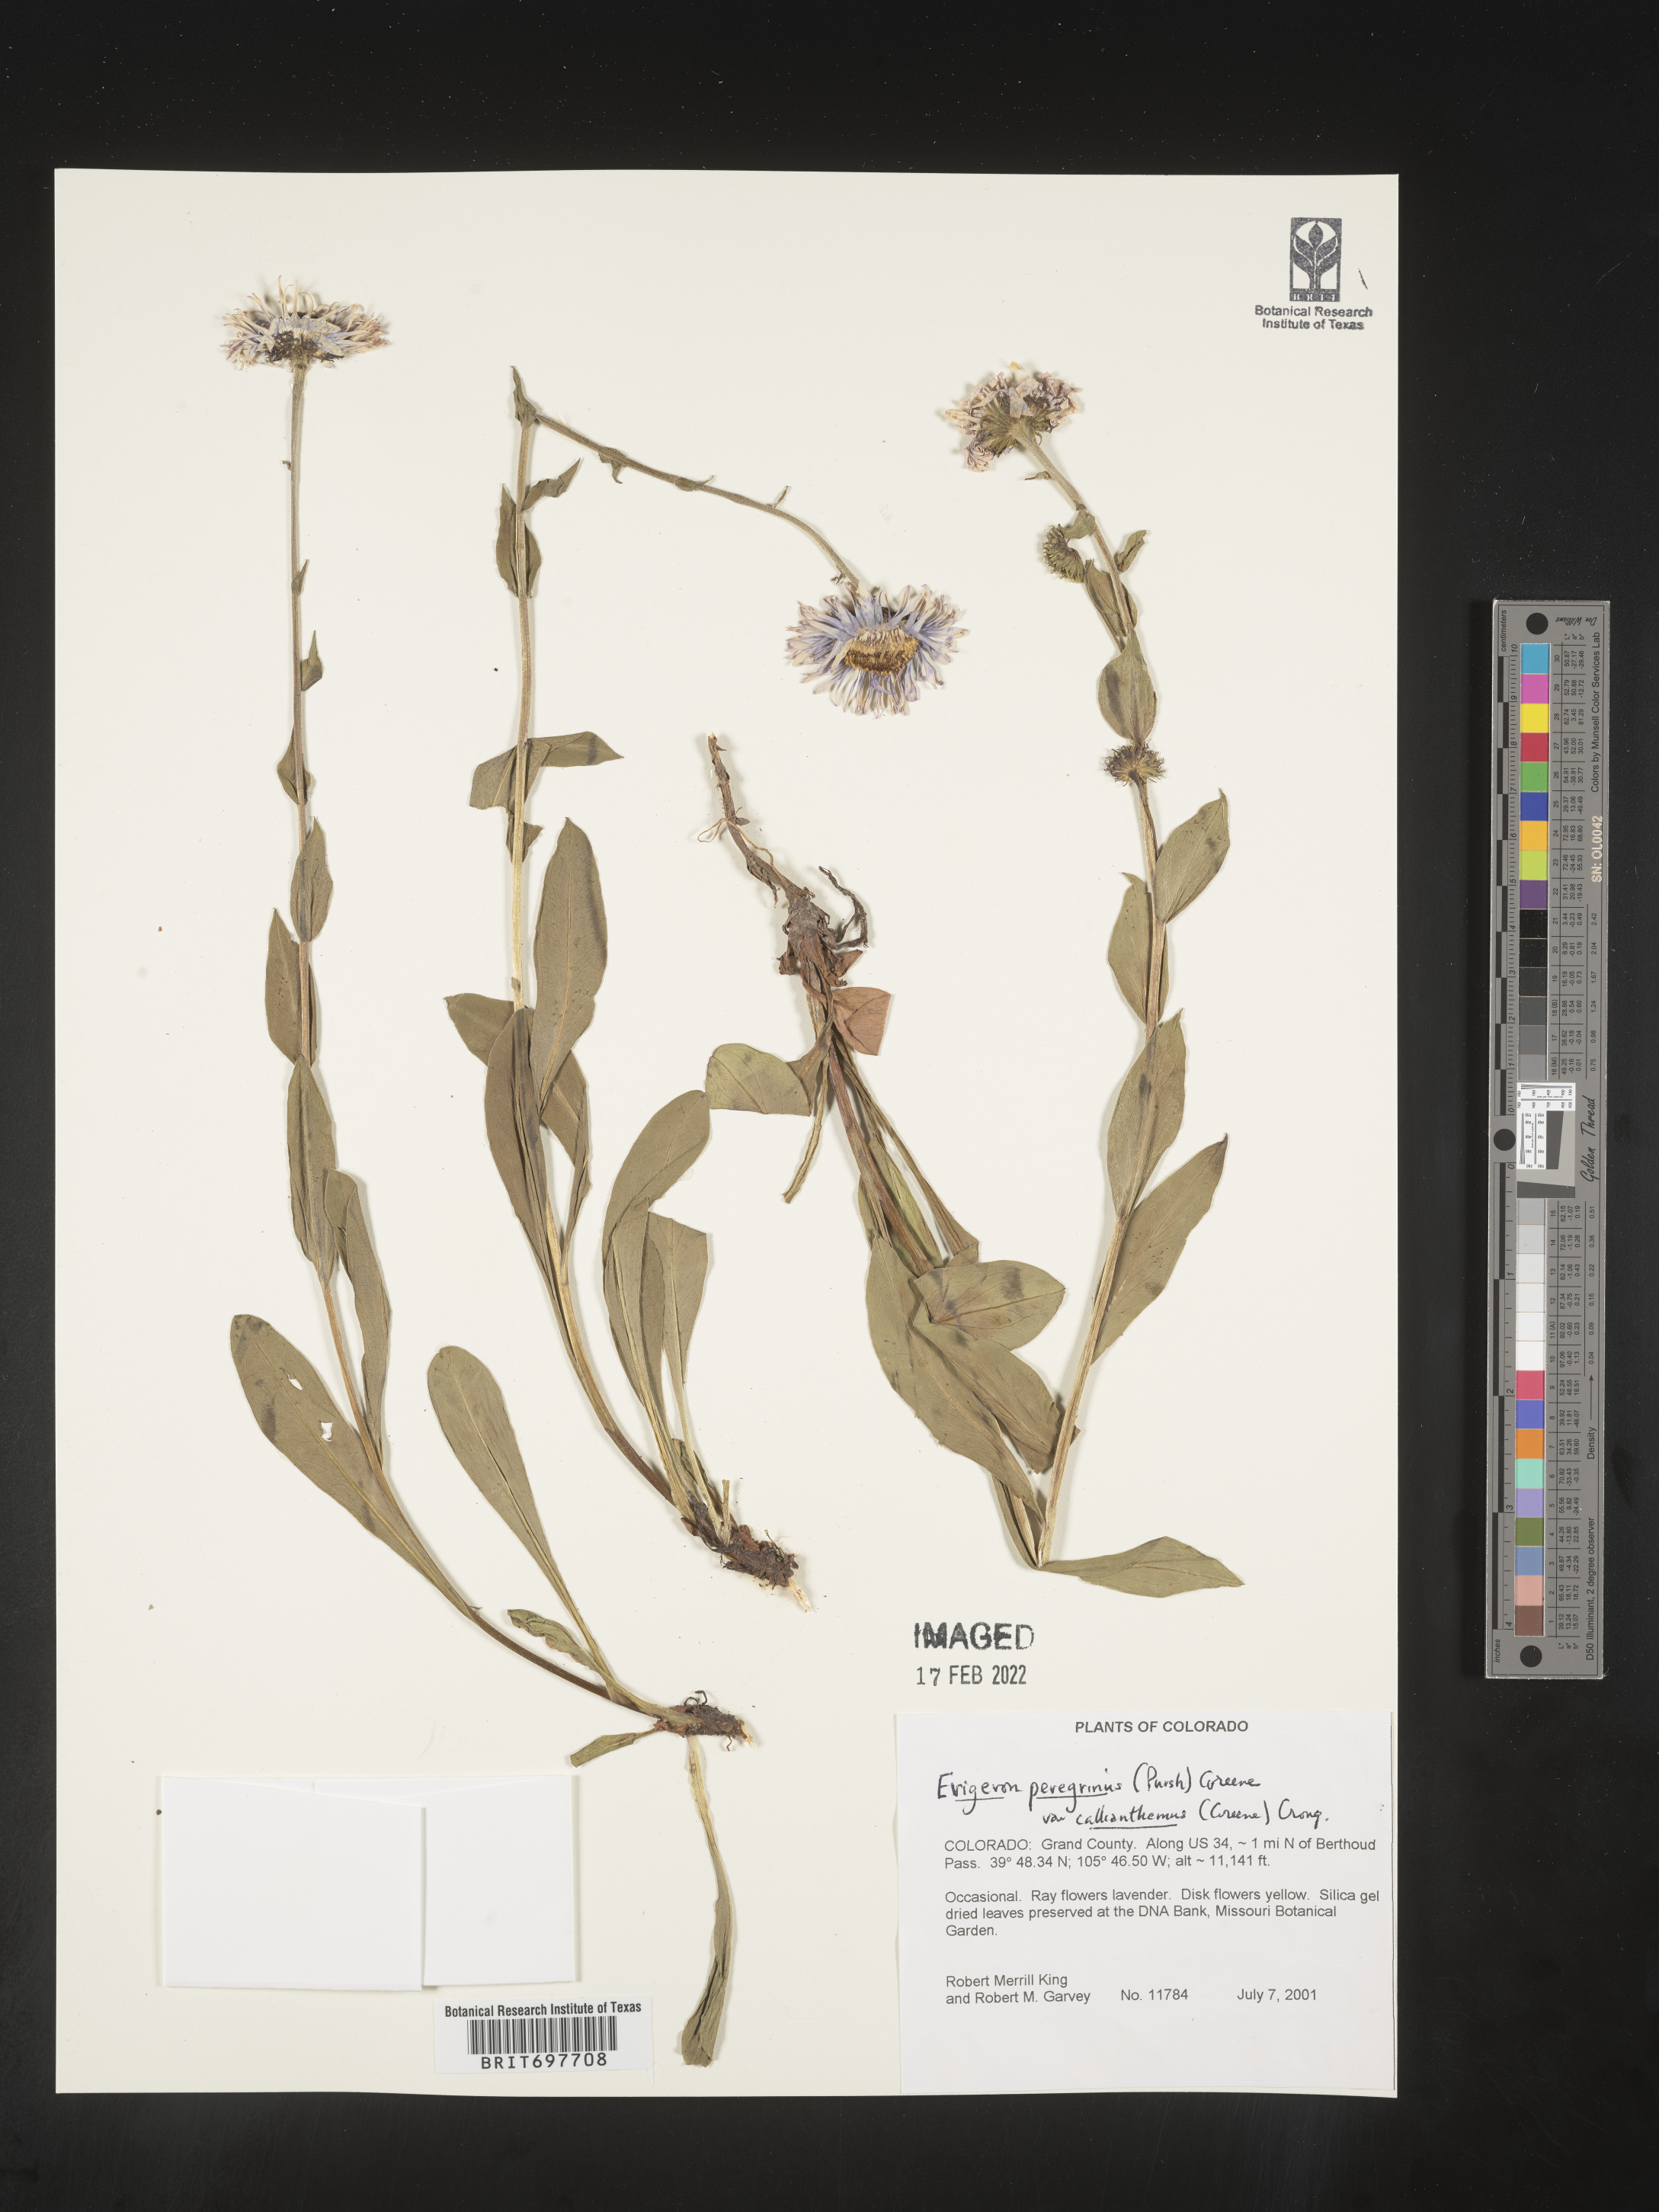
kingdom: Plantae
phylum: Tracheophyta
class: Magnoliopsida
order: Asterales
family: Asteraceae
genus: Erigeron
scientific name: Erigeron glacialis
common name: Subalpine fleabane
